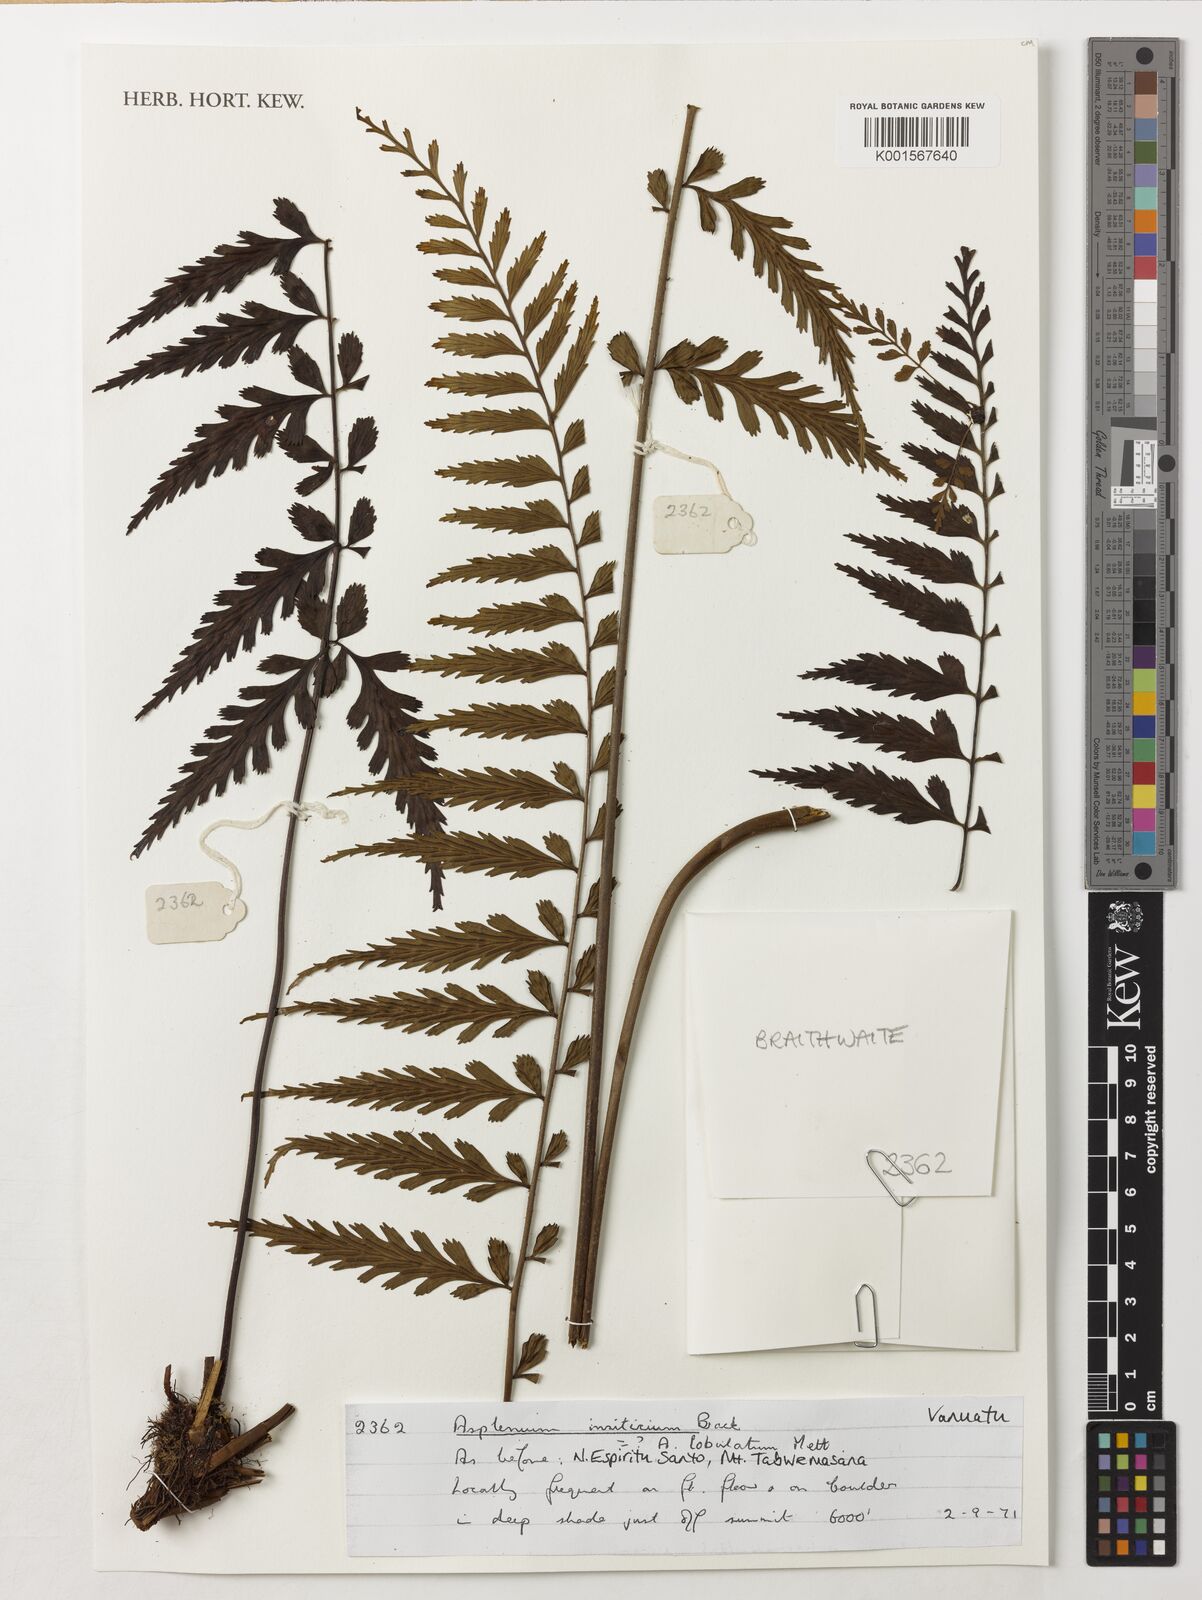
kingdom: Plantae
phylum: Tracheophyta
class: Polypodiopsida
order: Polypodiales
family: Aspleniaceae
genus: Asplenium
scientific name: Asplenium insiticium
